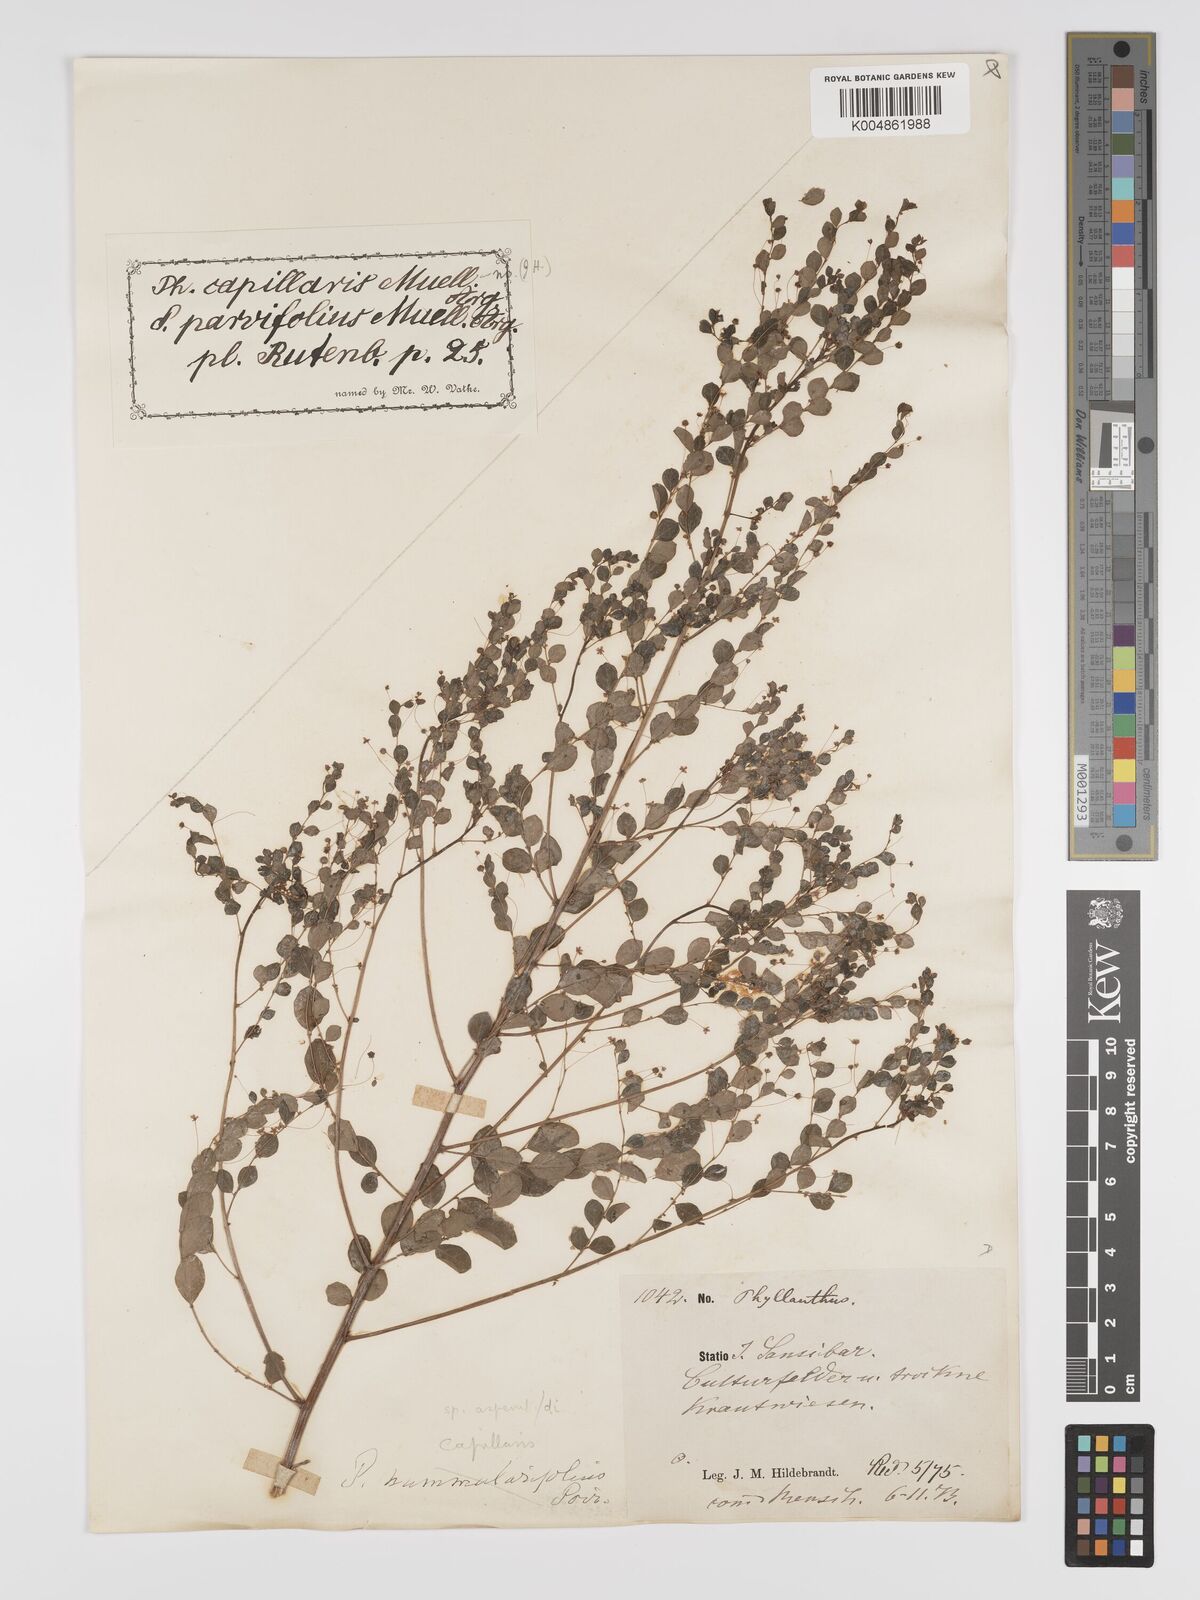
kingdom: Plantae
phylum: Tracheophyta
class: Magnoliopsida
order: Malpighiales
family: Phyllanthaceae
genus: Phyllanthus
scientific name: Phyllanthus nummulariifolius
